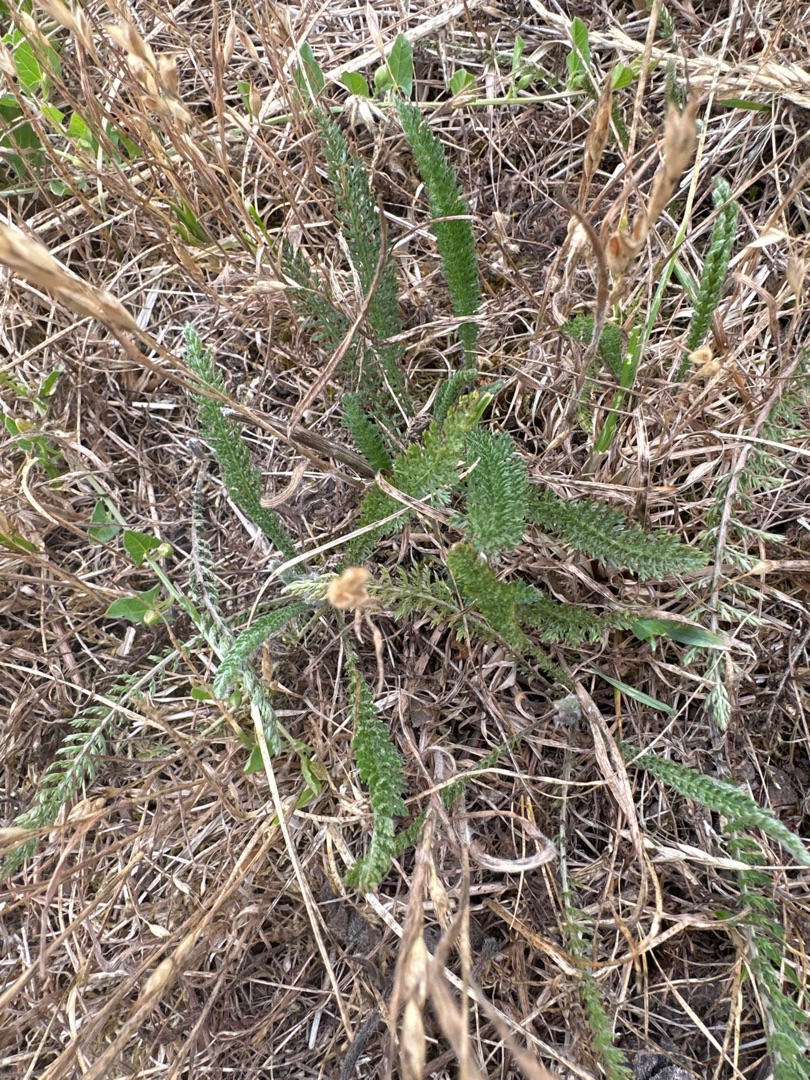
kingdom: Plantae
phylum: Tracheophyta
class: Magnoliopsida
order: Asterales
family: Asteraceae
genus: Achillea
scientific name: Achillea millefolium
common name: Almindelig røllike
